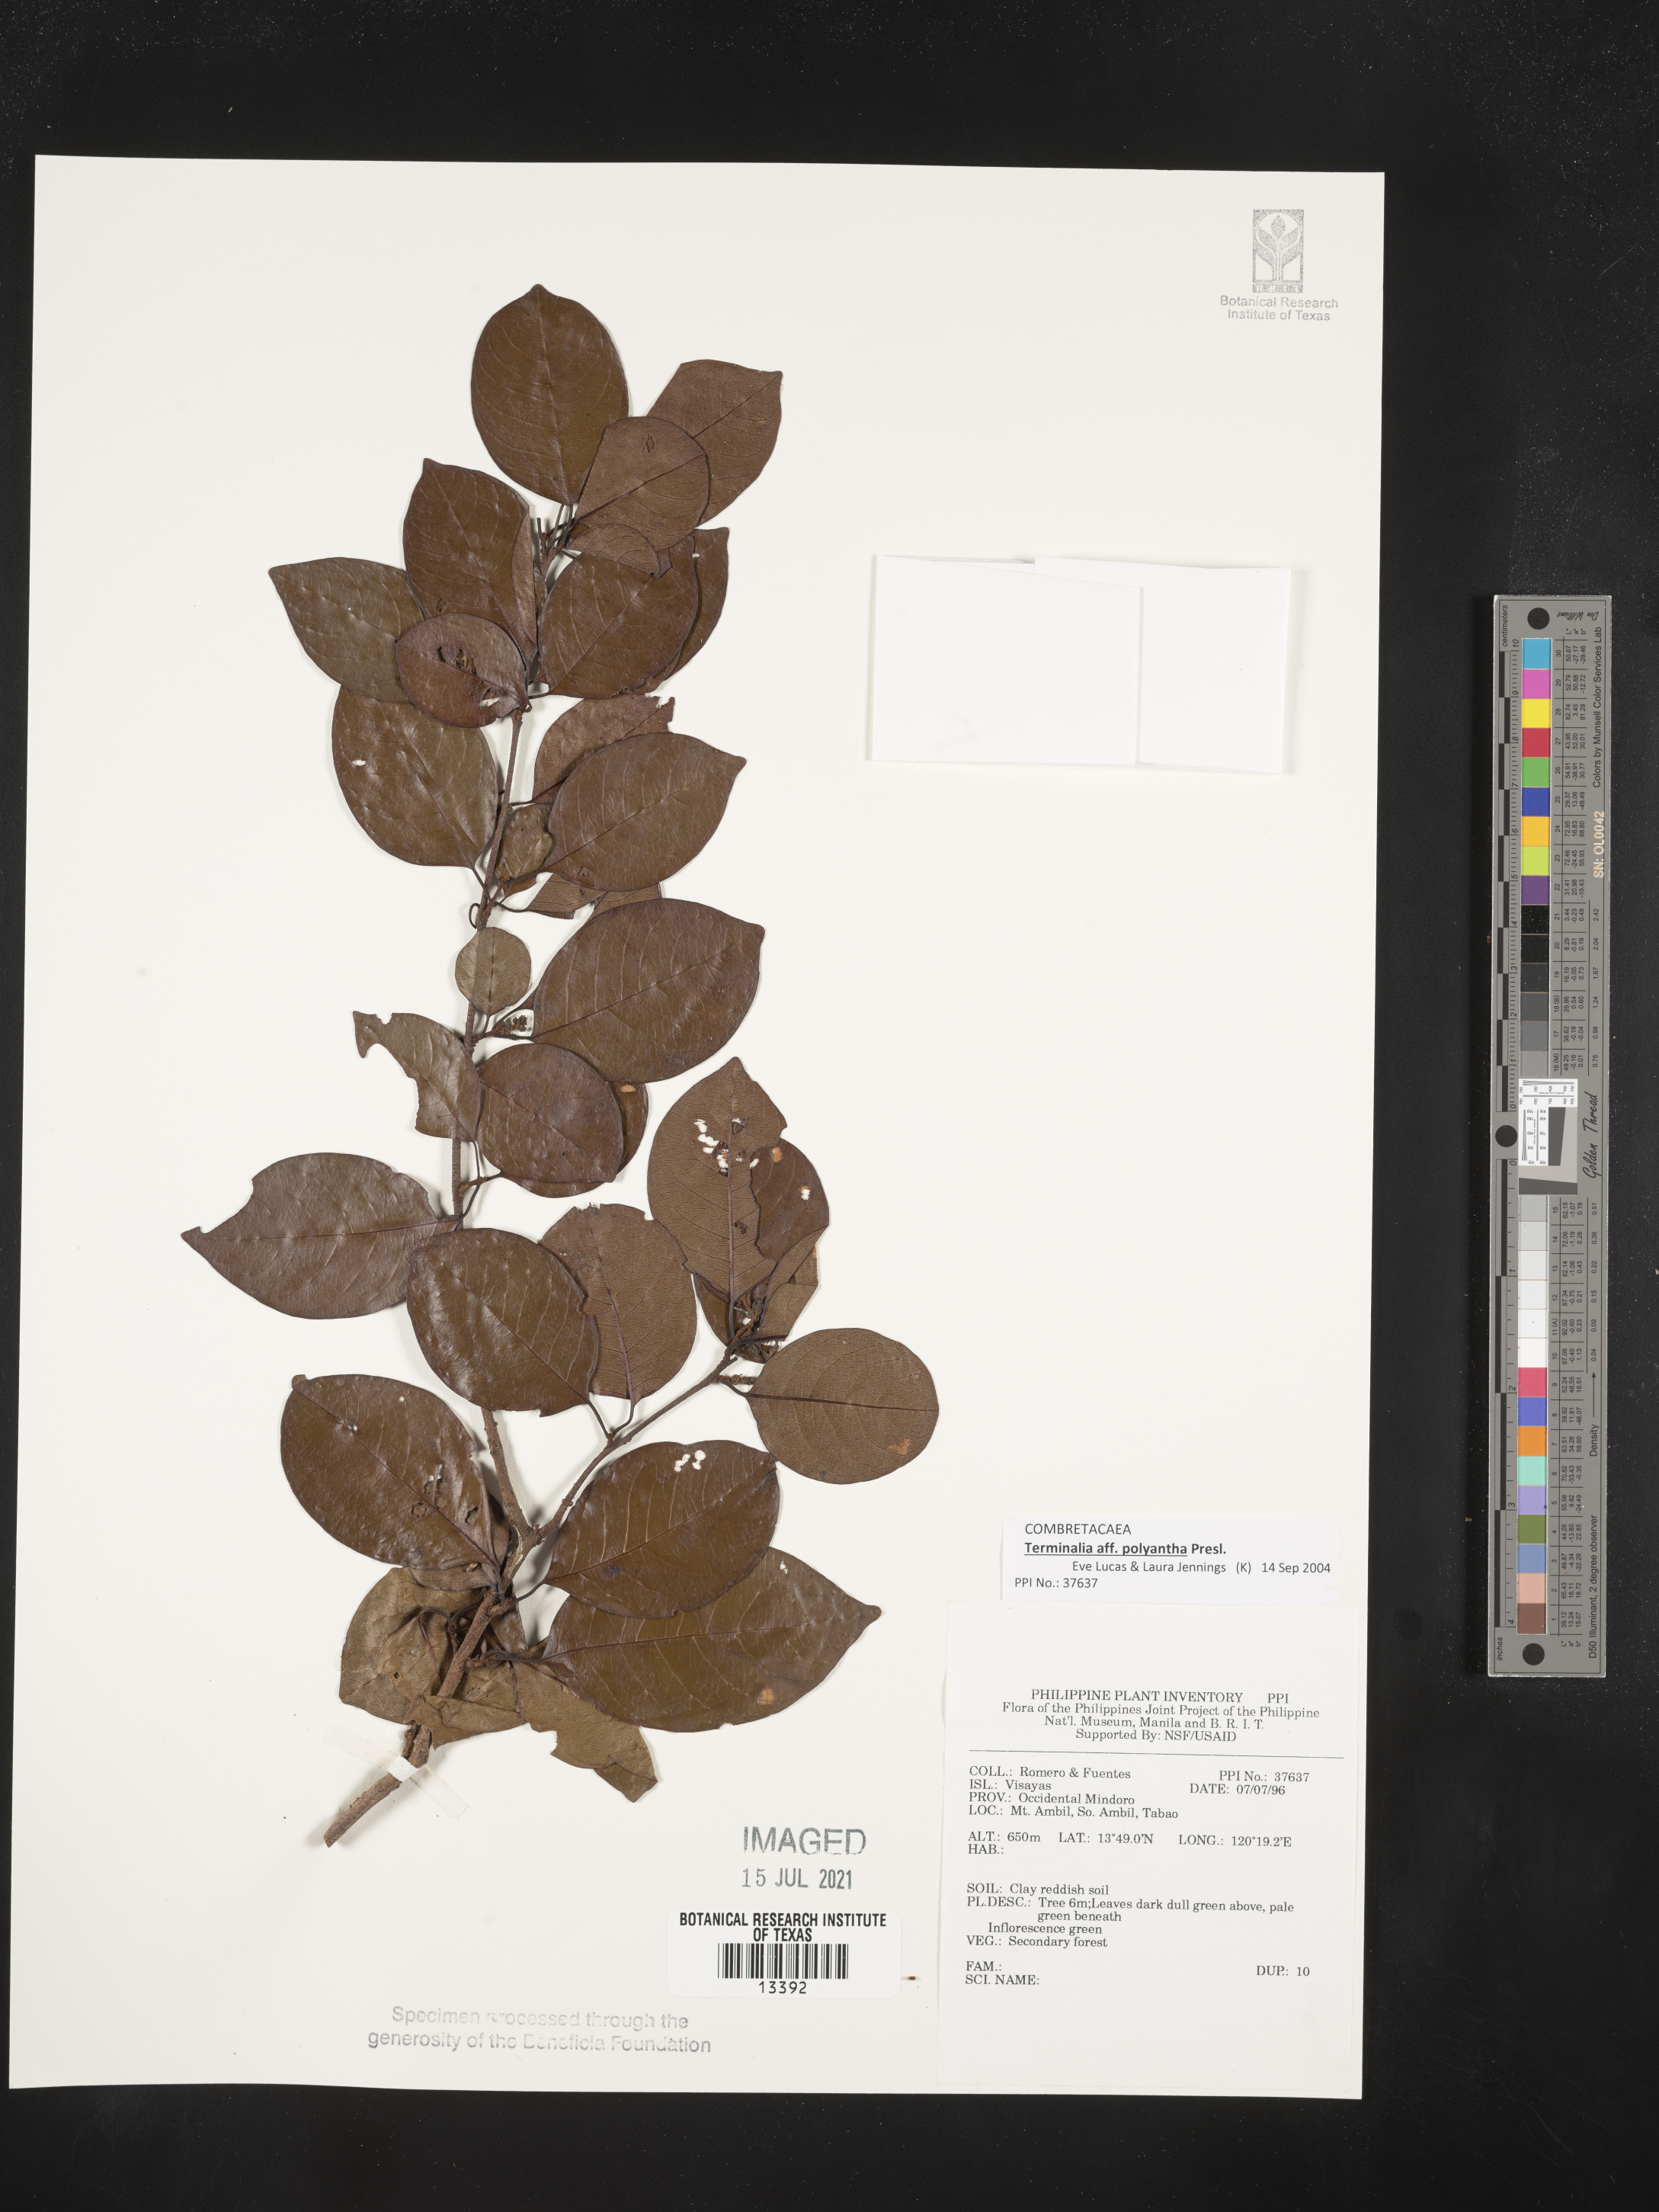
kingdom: Plantae
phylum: Tracheophyta
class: Magnoliopsida
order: Myrtales
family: Combretaceae
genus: Terminalia
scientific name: Terminalia polyantha
